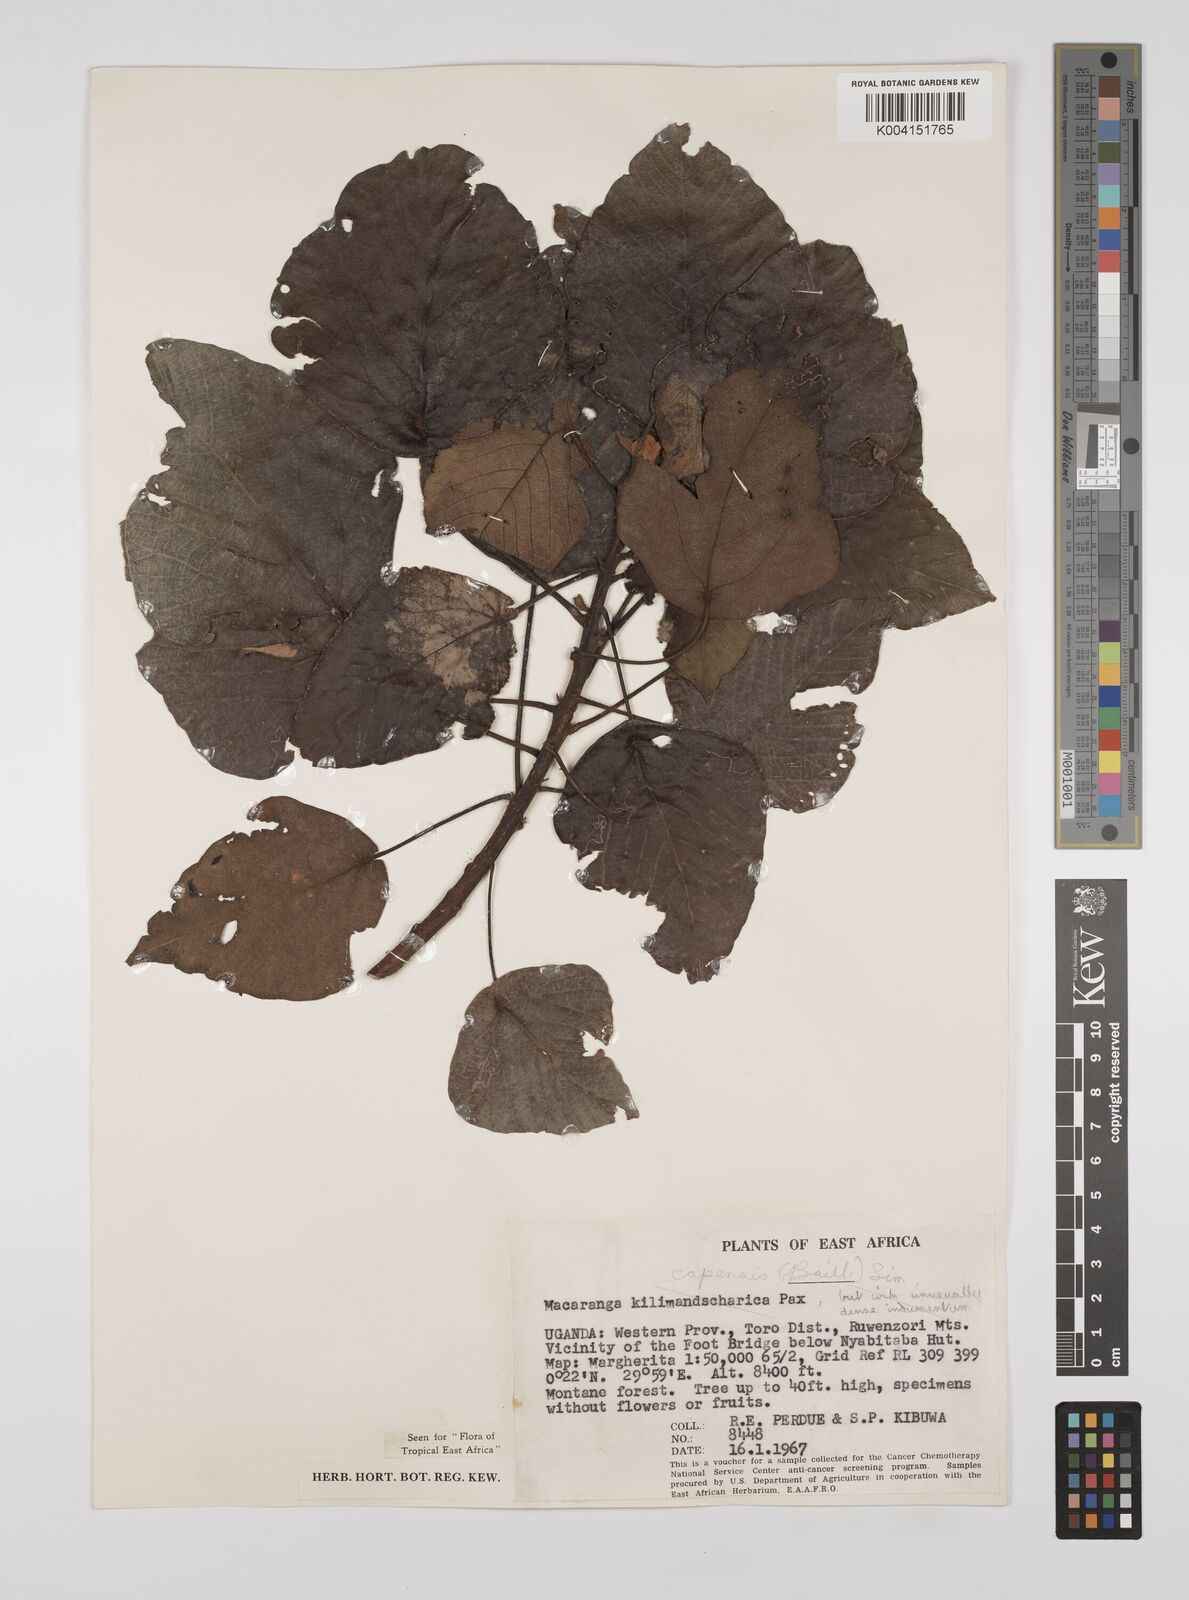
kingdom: Plantae
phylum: Tracheophyta
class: Magnoliopsida
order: Malpighiales
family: Euphorbiaceae
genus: Macaranga
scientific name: Macaranga capensis
